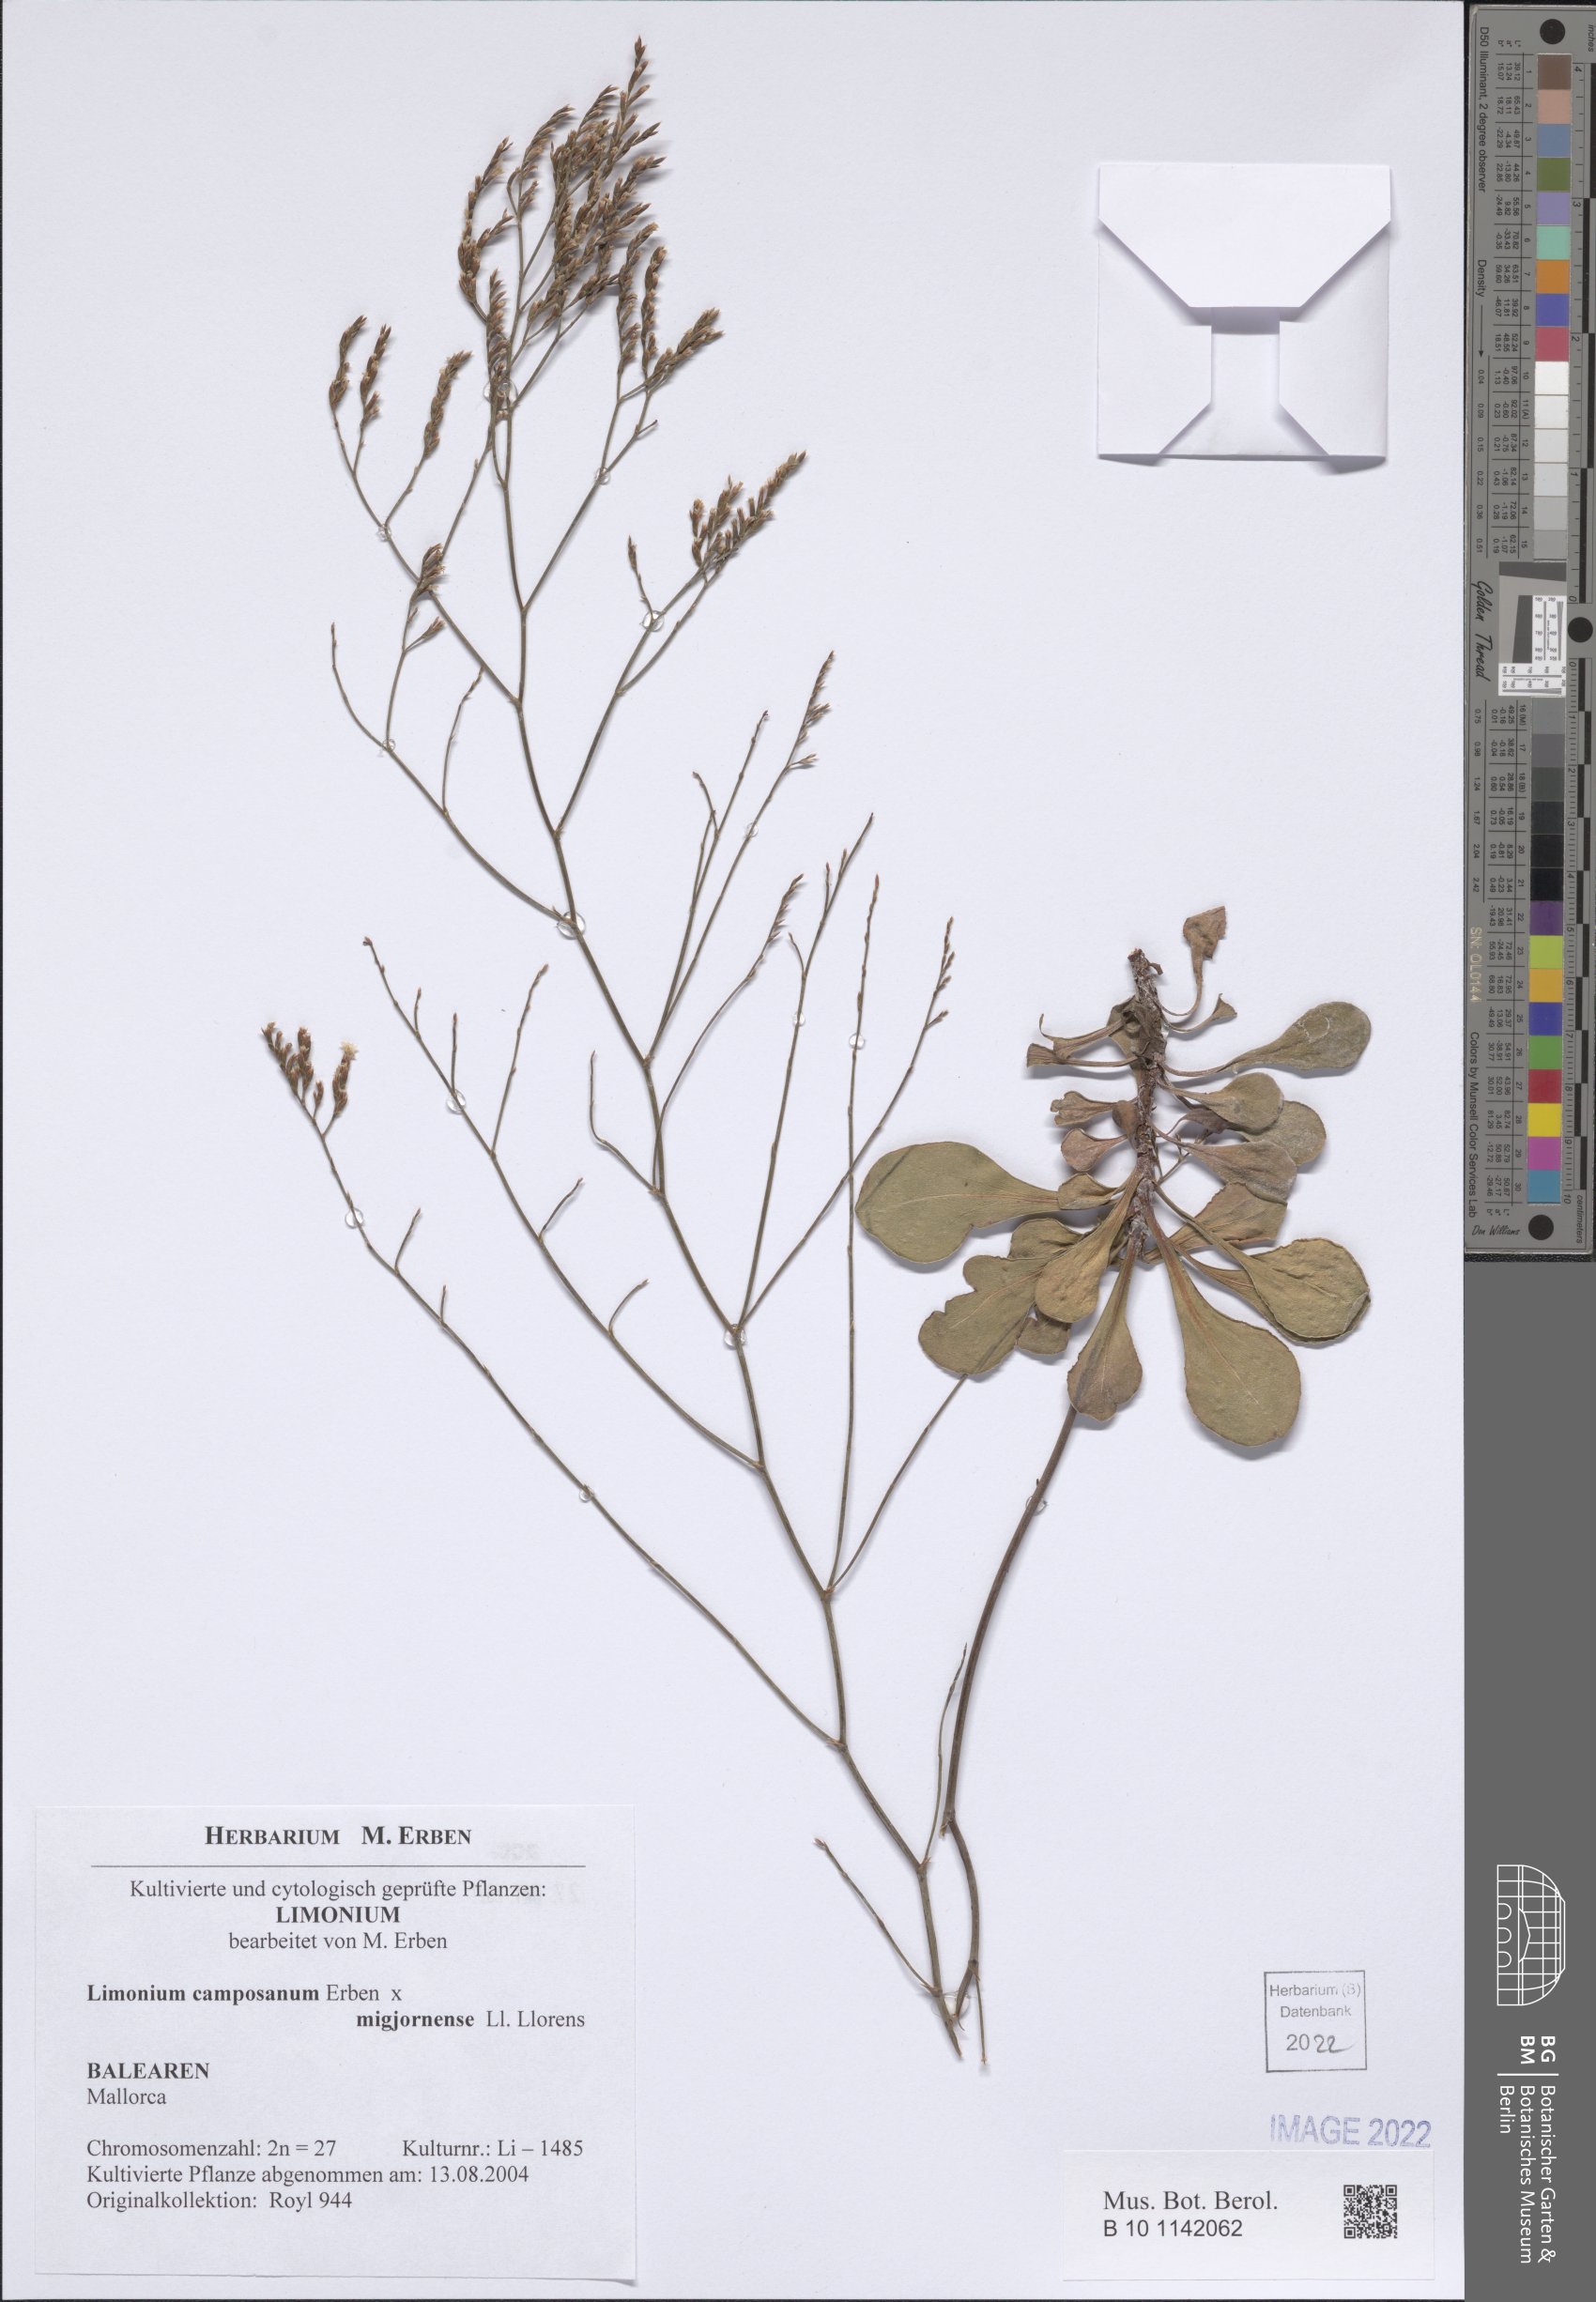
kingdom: Plantae
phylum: Tracheophyta
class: Magnoliopsida
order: Caryophyllales
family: Plumbaginaceae
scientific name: Plumbaginaceae
